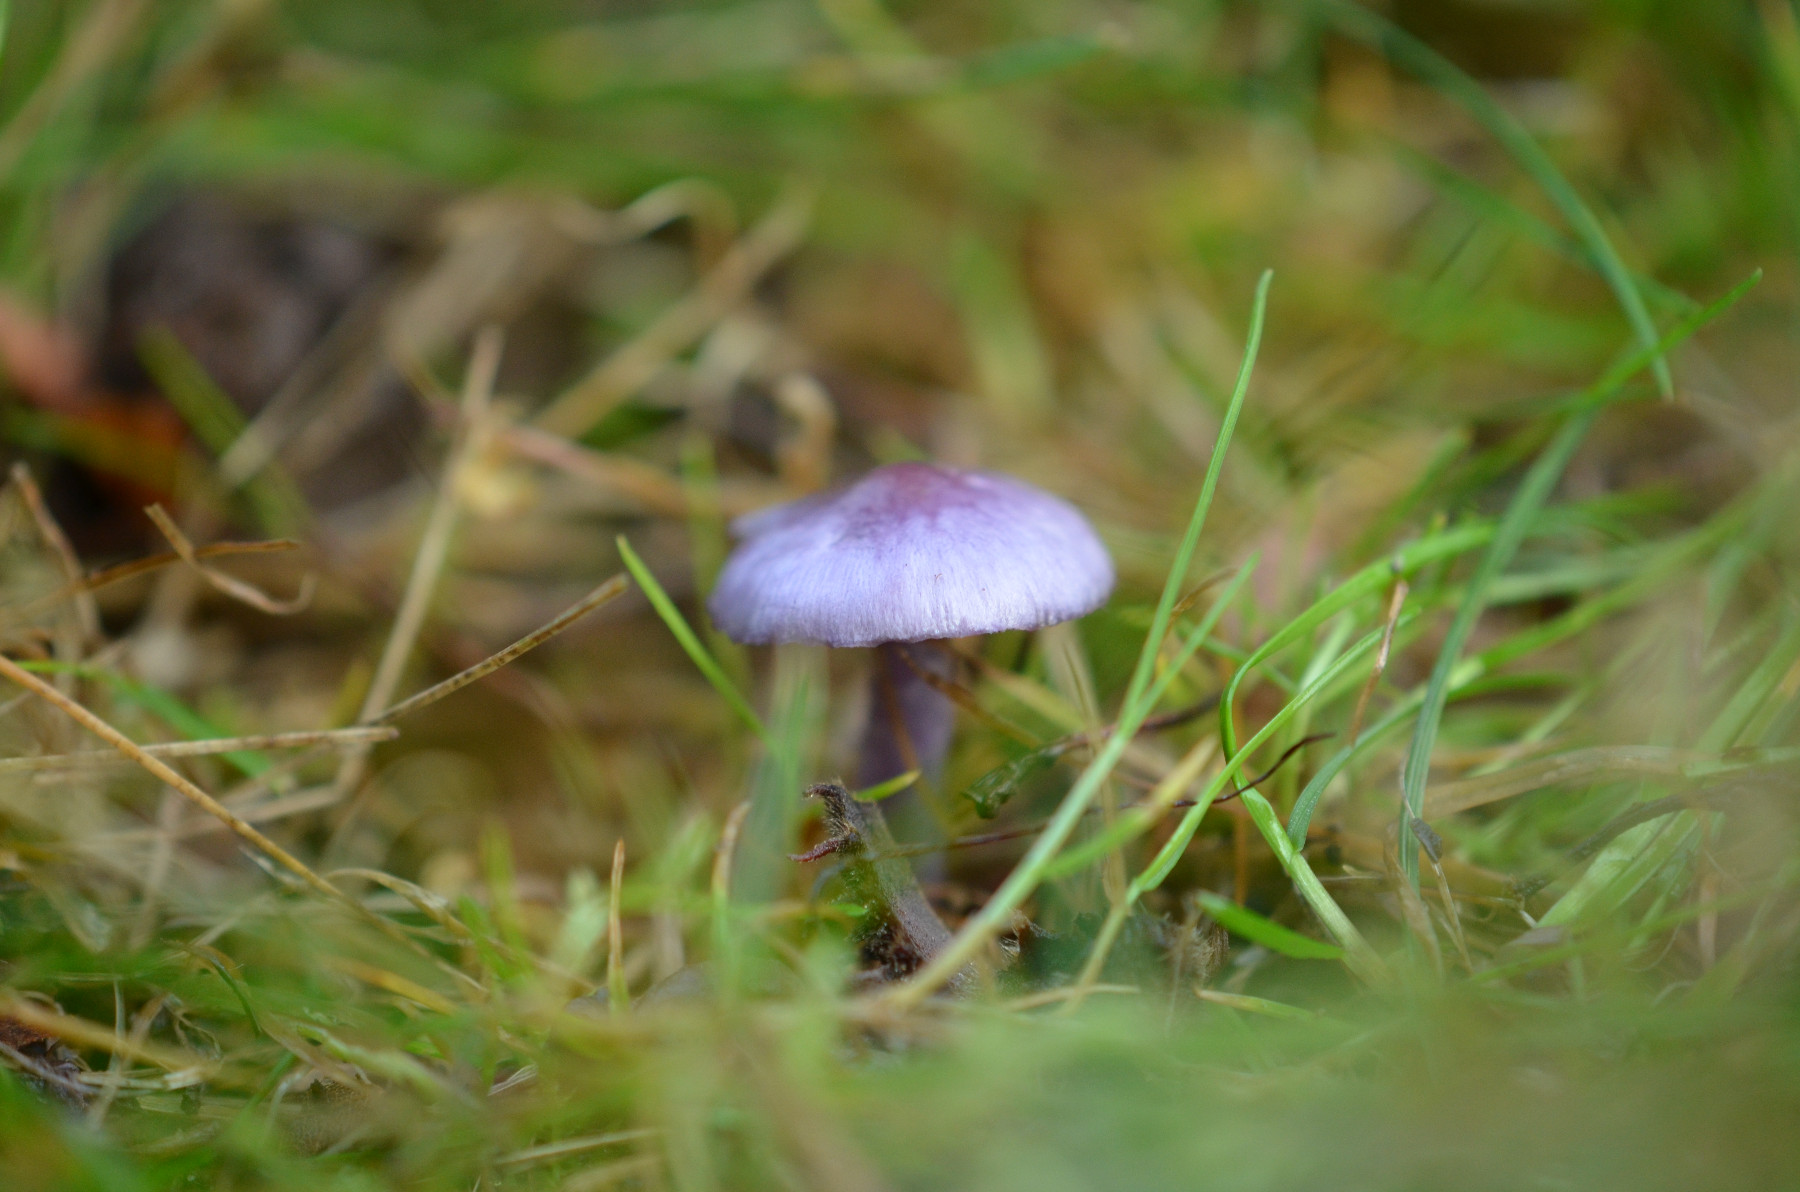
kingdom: Fungi
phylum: Basidiomycota
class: Agaricomycetes
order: Agaricales
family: Inocybaceae
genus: Inocybe
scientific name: Inocybe geophylla
